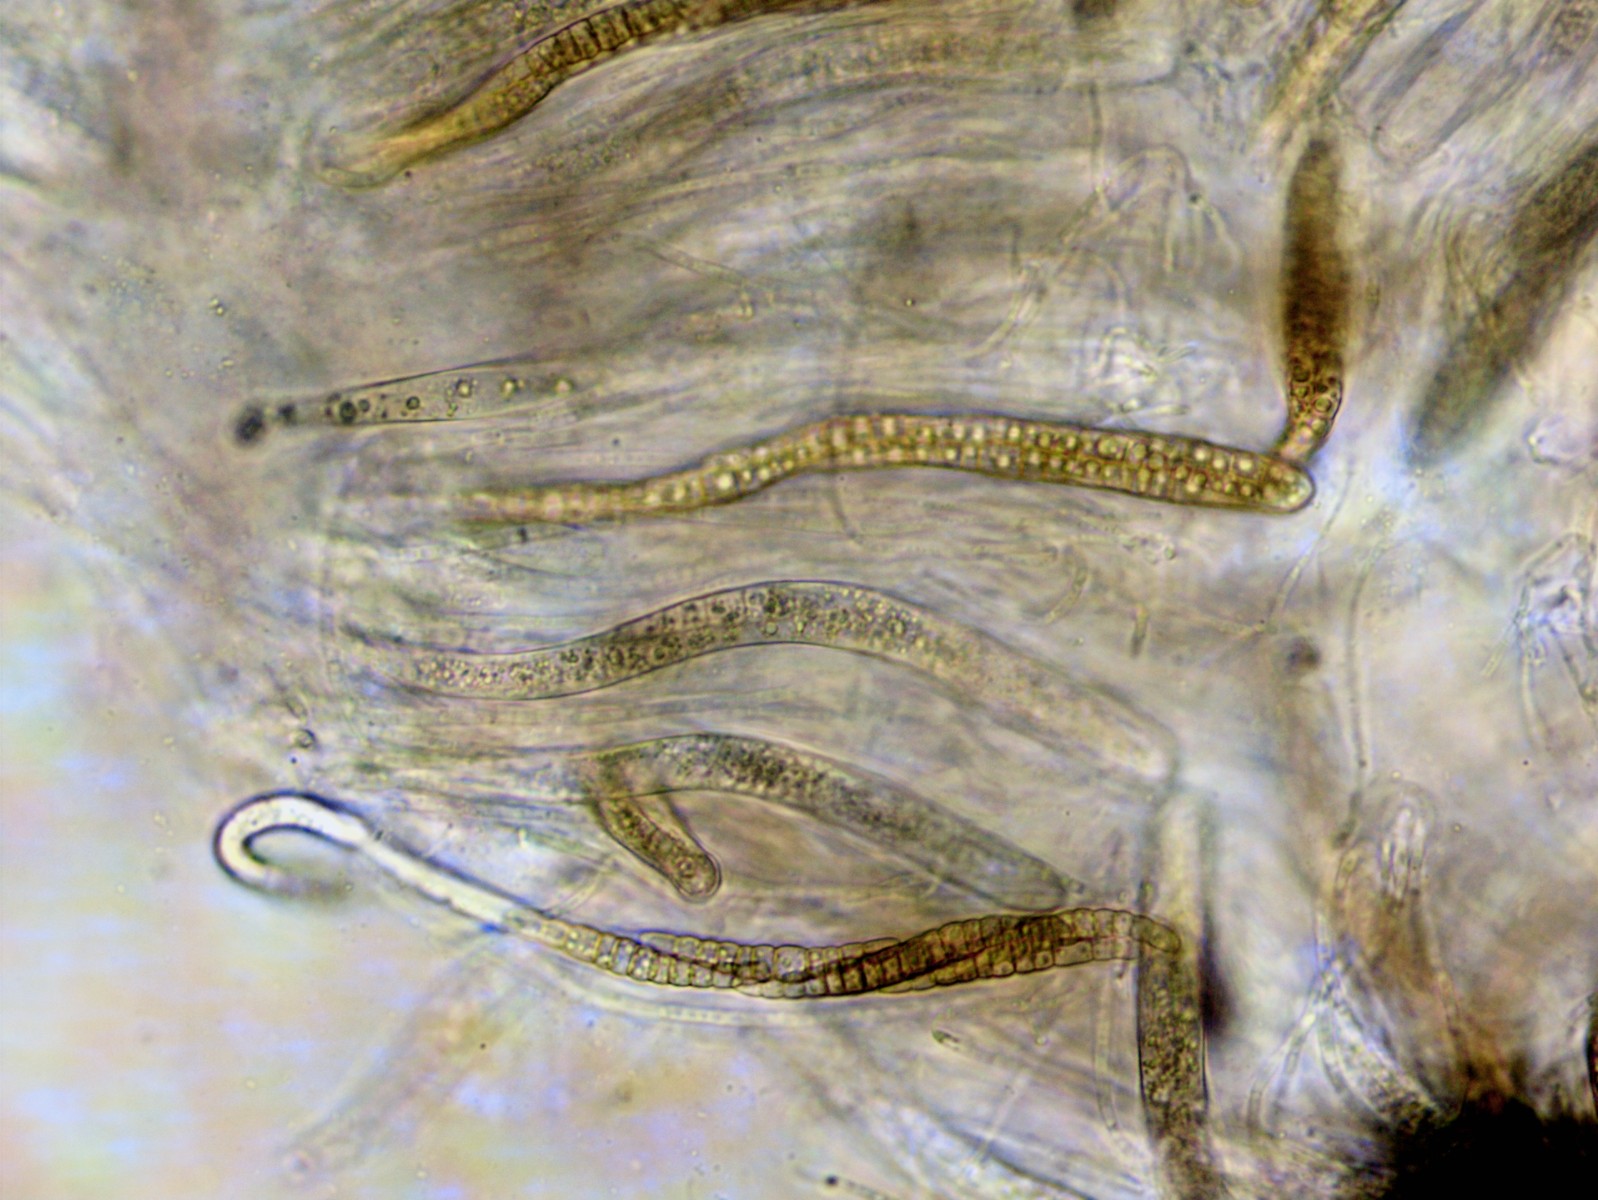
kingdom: Fungi
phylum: Ascomycota
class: Dothideomycetes
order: Pleosporales
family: Leptosphaeriaceae
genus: Leptosphaeria
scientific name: Leptosphaeria acuta
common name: spids kulkegle
